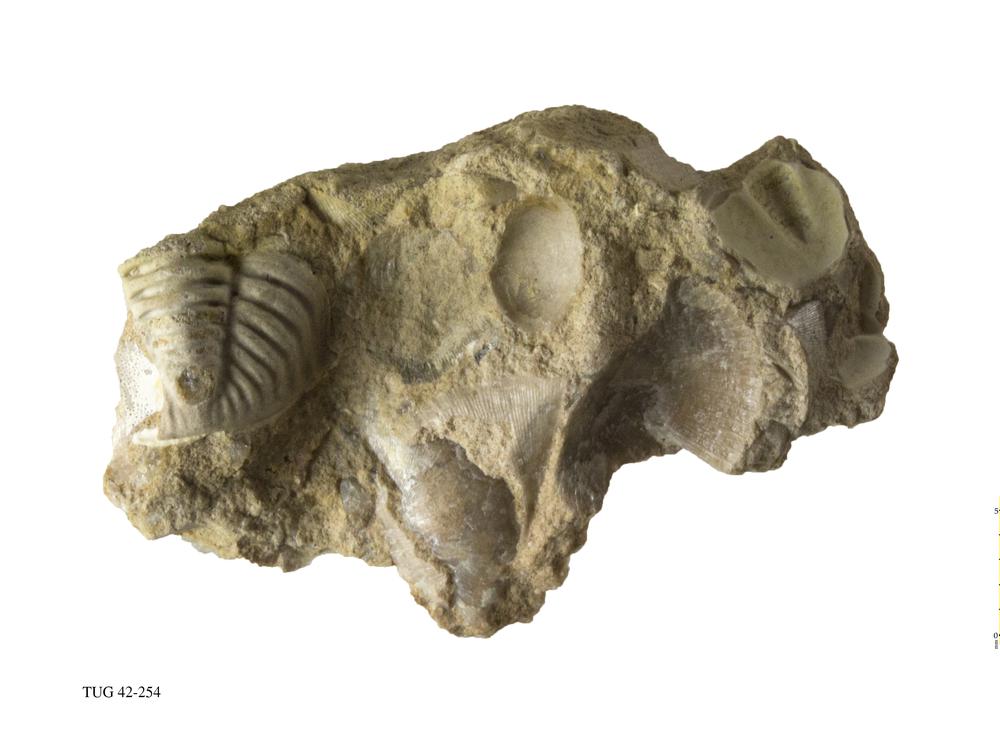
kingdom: Animalia
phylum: Arthropoda
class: Trilobita
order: Phacopida
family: Phacopidae
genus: Phacops
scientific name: Phacops
